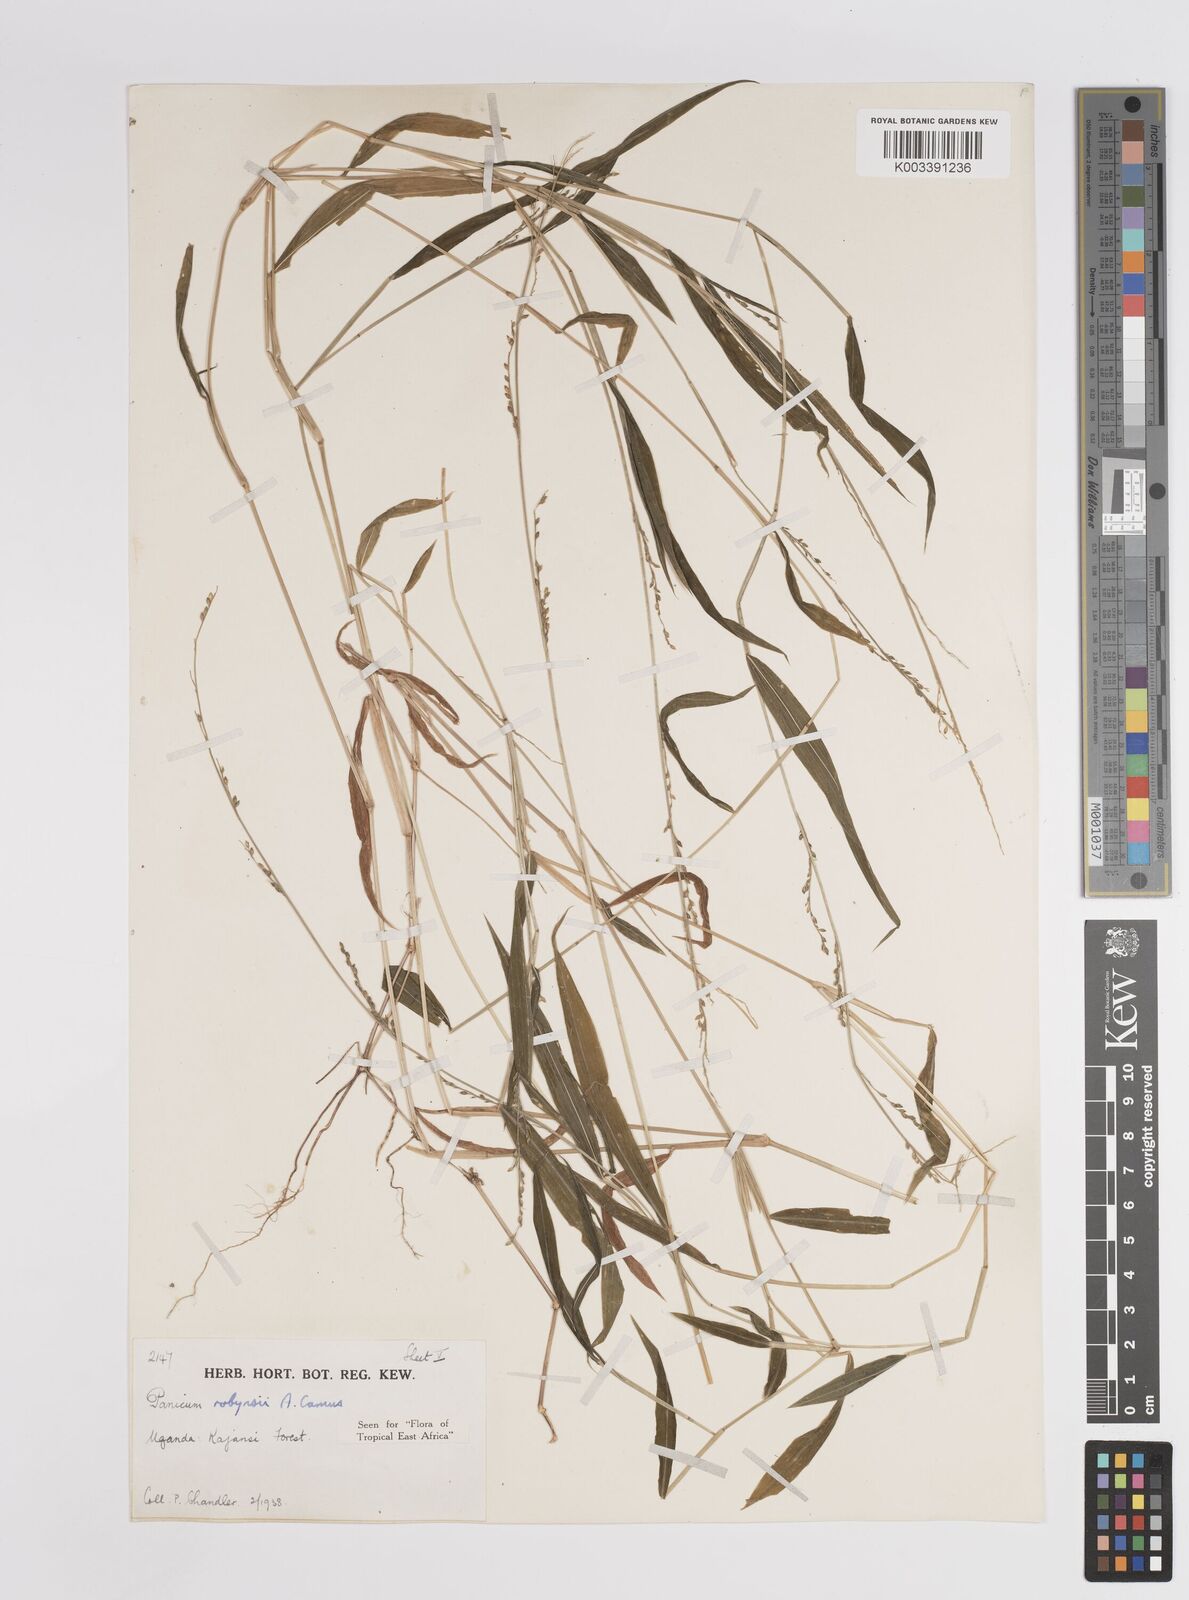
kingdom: Plantae
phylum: Tracheophyta
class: Liliopsida
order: Poales
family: Poaceae
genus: Panicum
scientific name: Panicum robynsii
